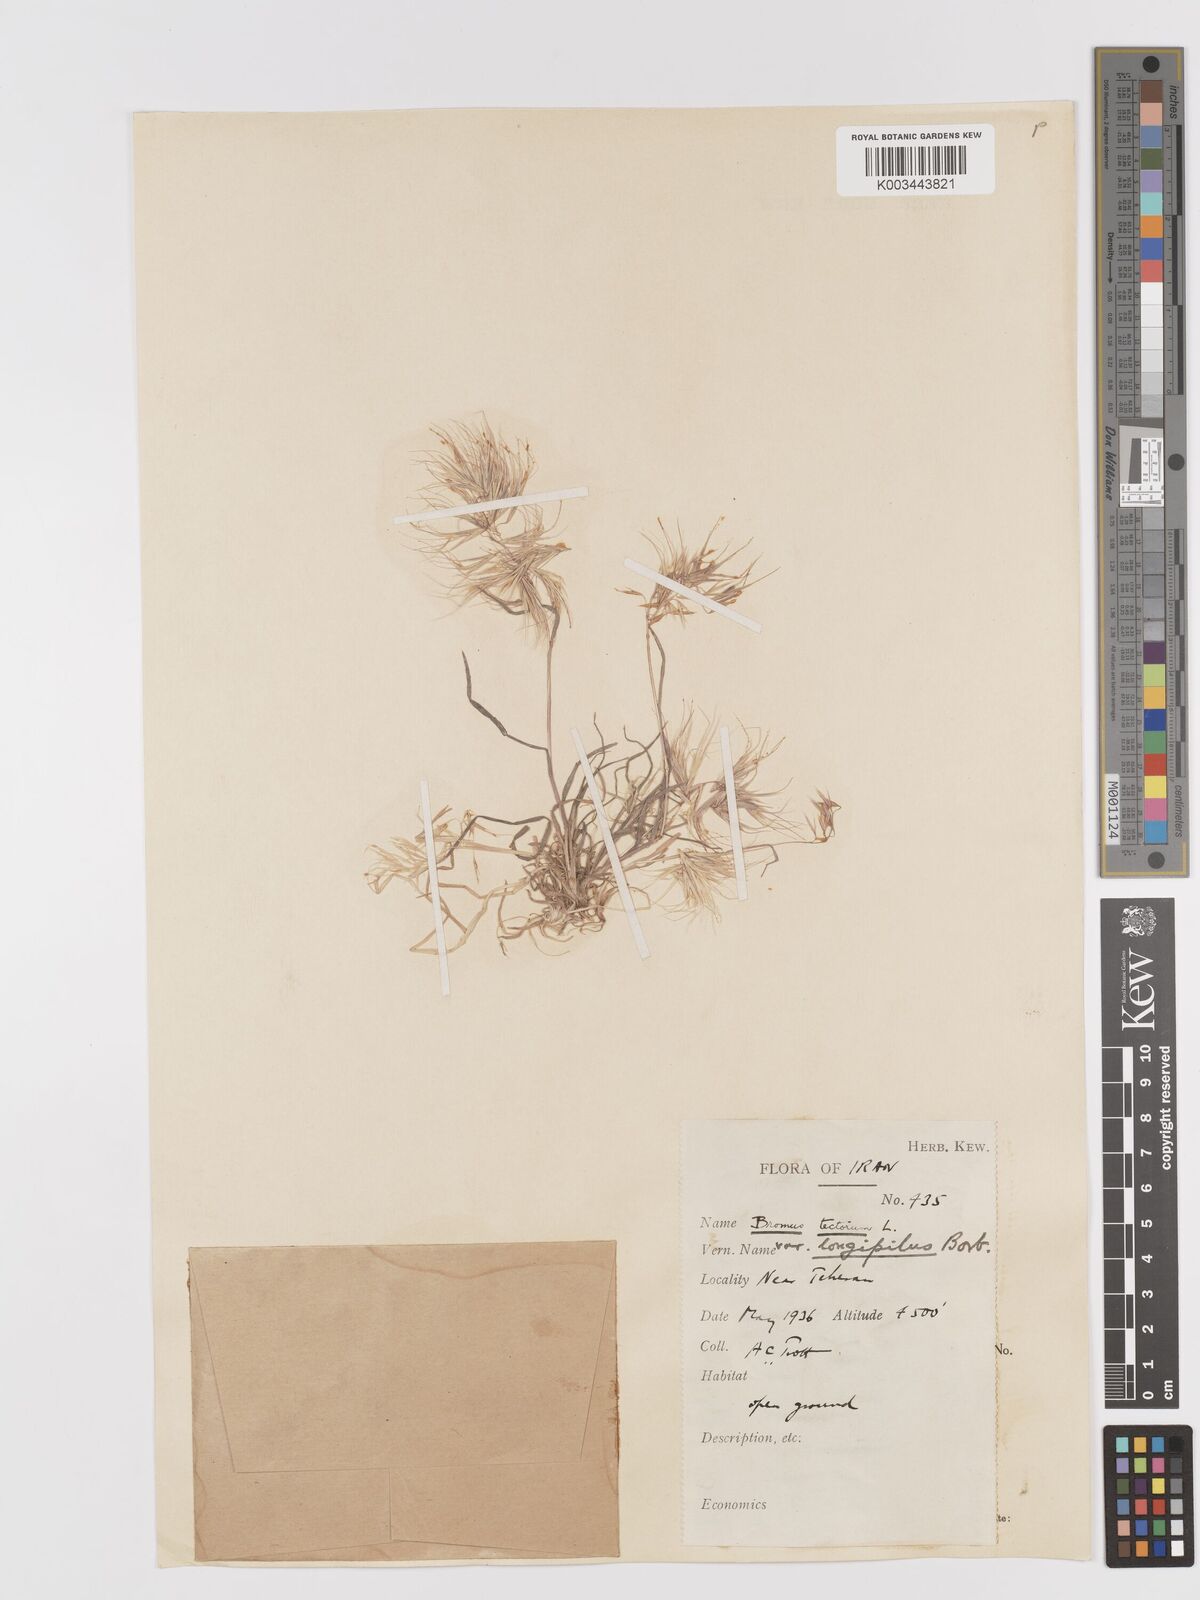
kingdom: Plantae
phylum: Tracheophyta
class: Liliopsida
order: Poales
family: Poaceae
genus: Bromus
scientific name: Bromus tectorum
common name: Cheatgrass
